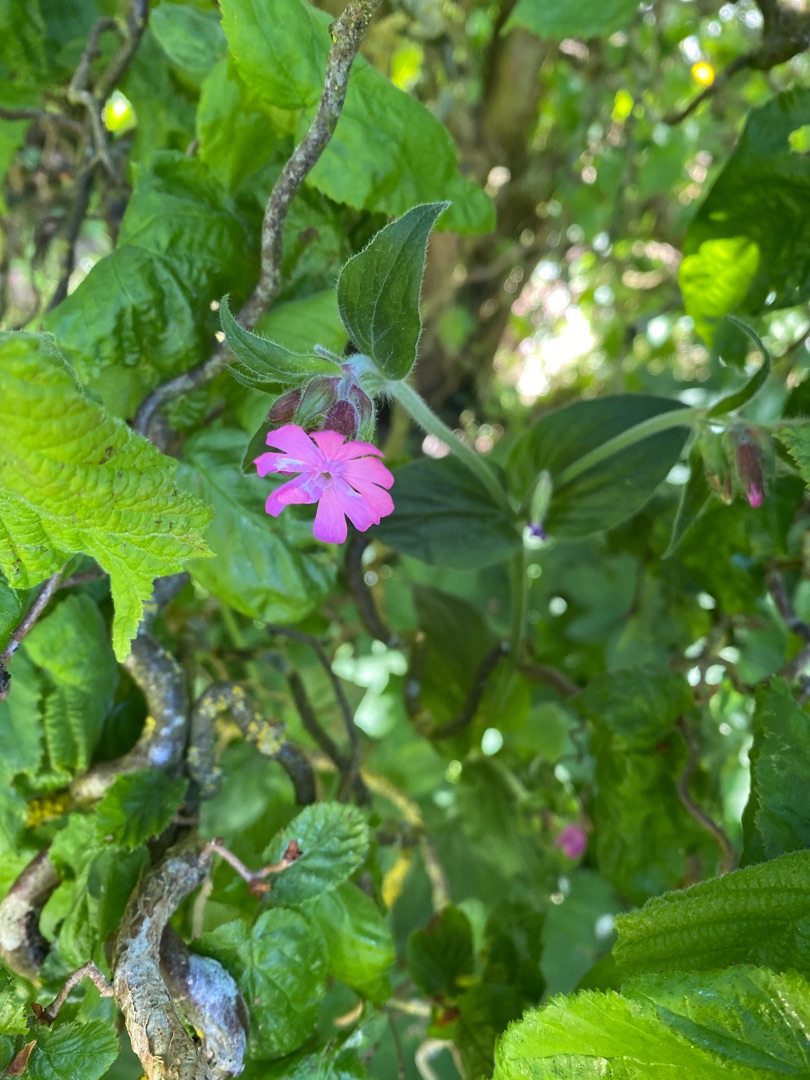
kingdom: Plantae
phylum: Tracheophyta
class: Magnoliopsida
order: Caryophyllales
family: Caryophyllaceae
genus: Silene
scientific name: Silene dioica
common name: Dagpragtstjerne
